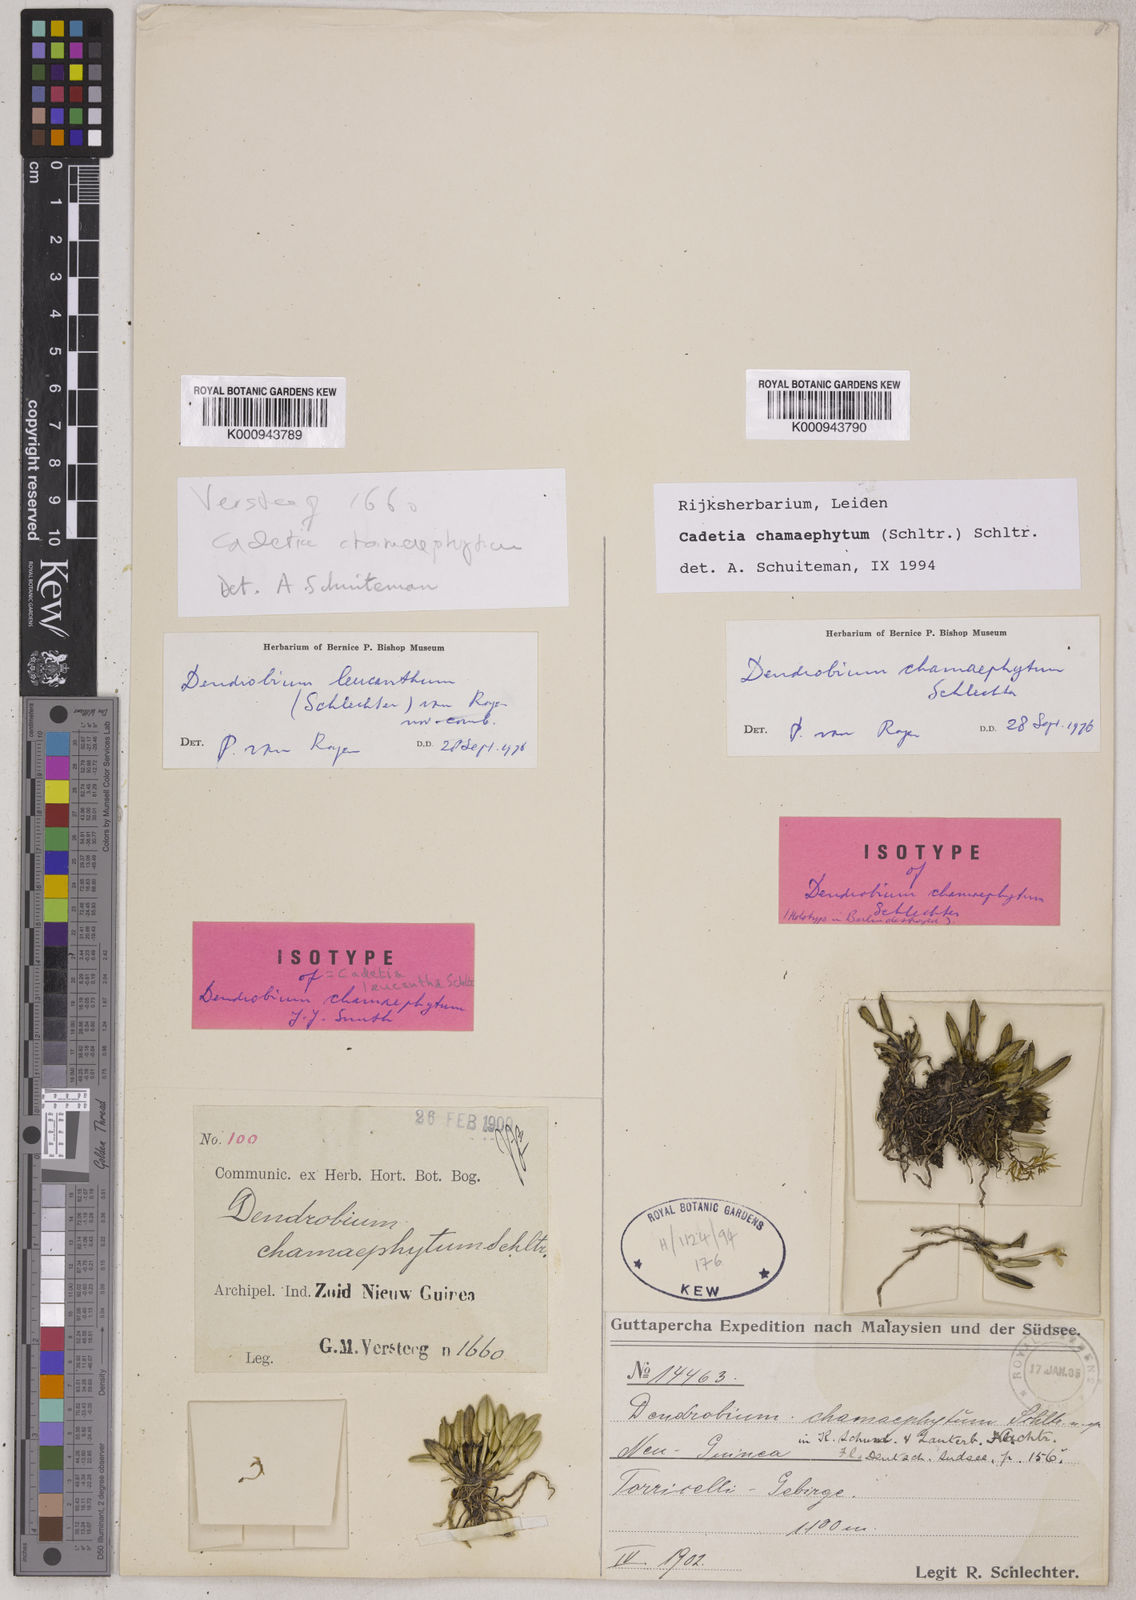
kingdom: Plantae
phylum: Tracheophyta
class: Liliopsida
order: Asparagales
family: Orchidaceae
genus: Dendrobium
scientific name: Dendrobium chamaephytum
